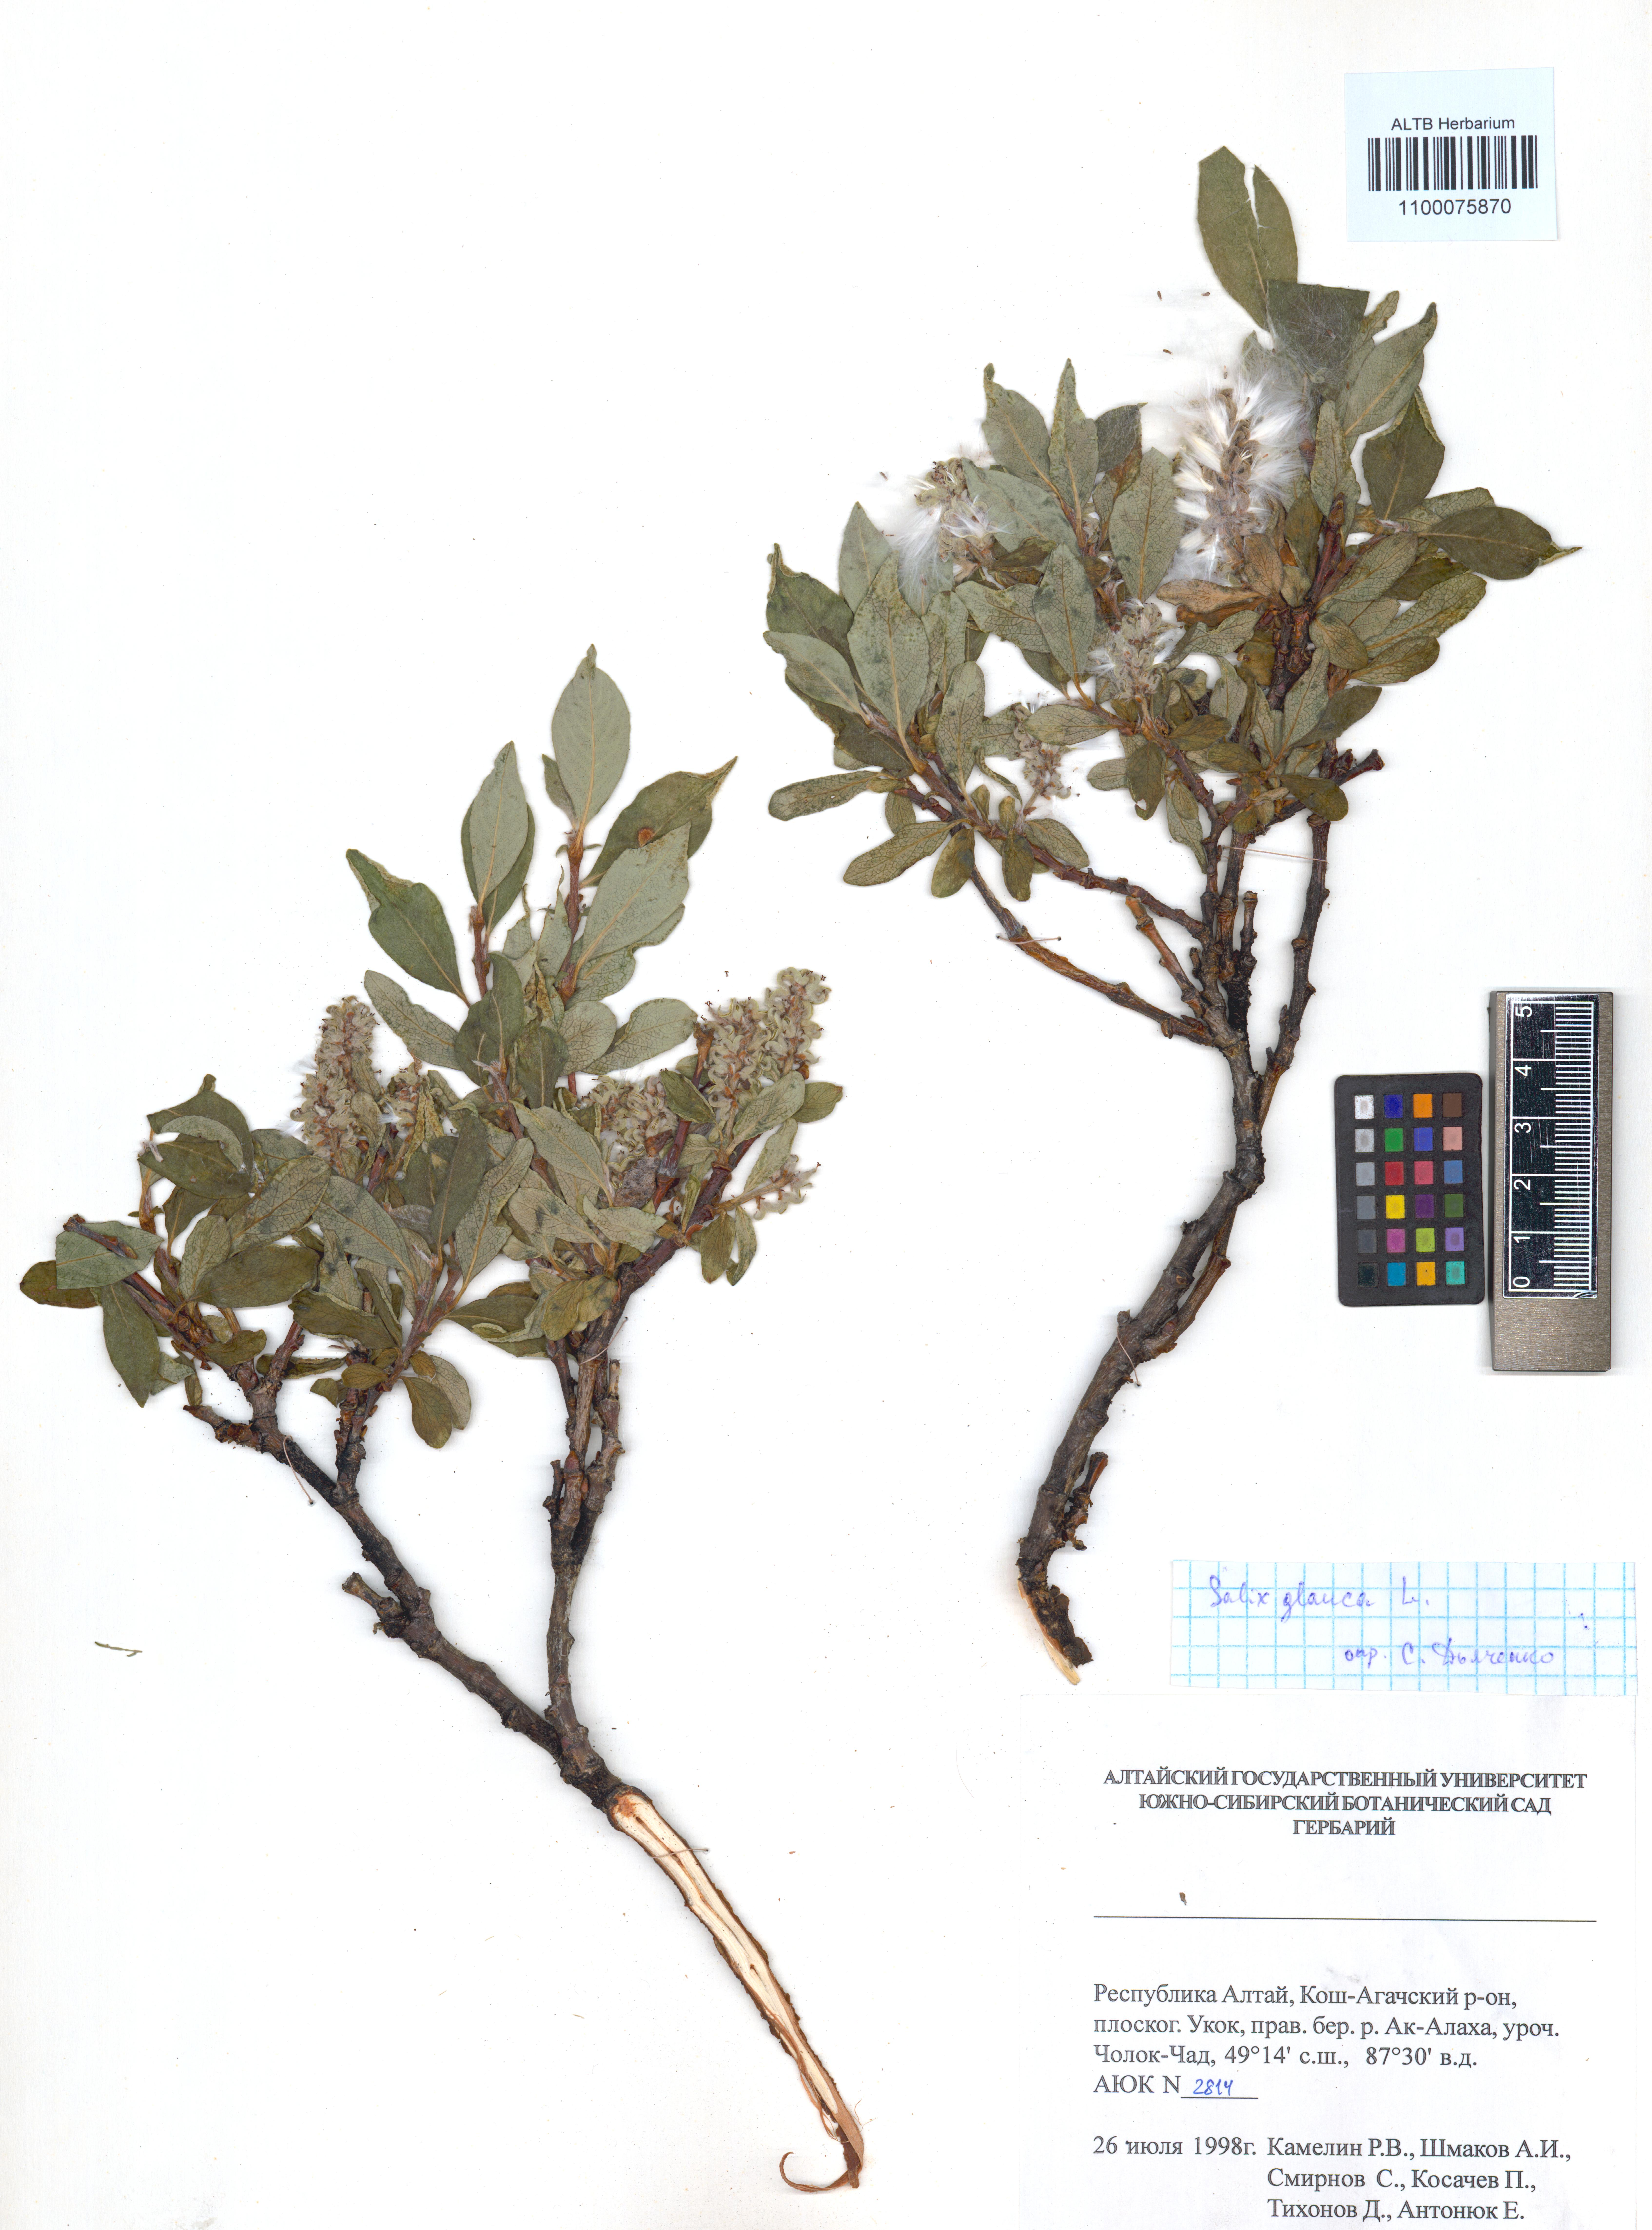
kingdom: Plantae
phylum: Tracheophyta
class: Magnoliopsida
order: Malpighiales
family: Salicaceae
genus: Salix
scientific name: Salix glauca
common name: Glaucous willow
